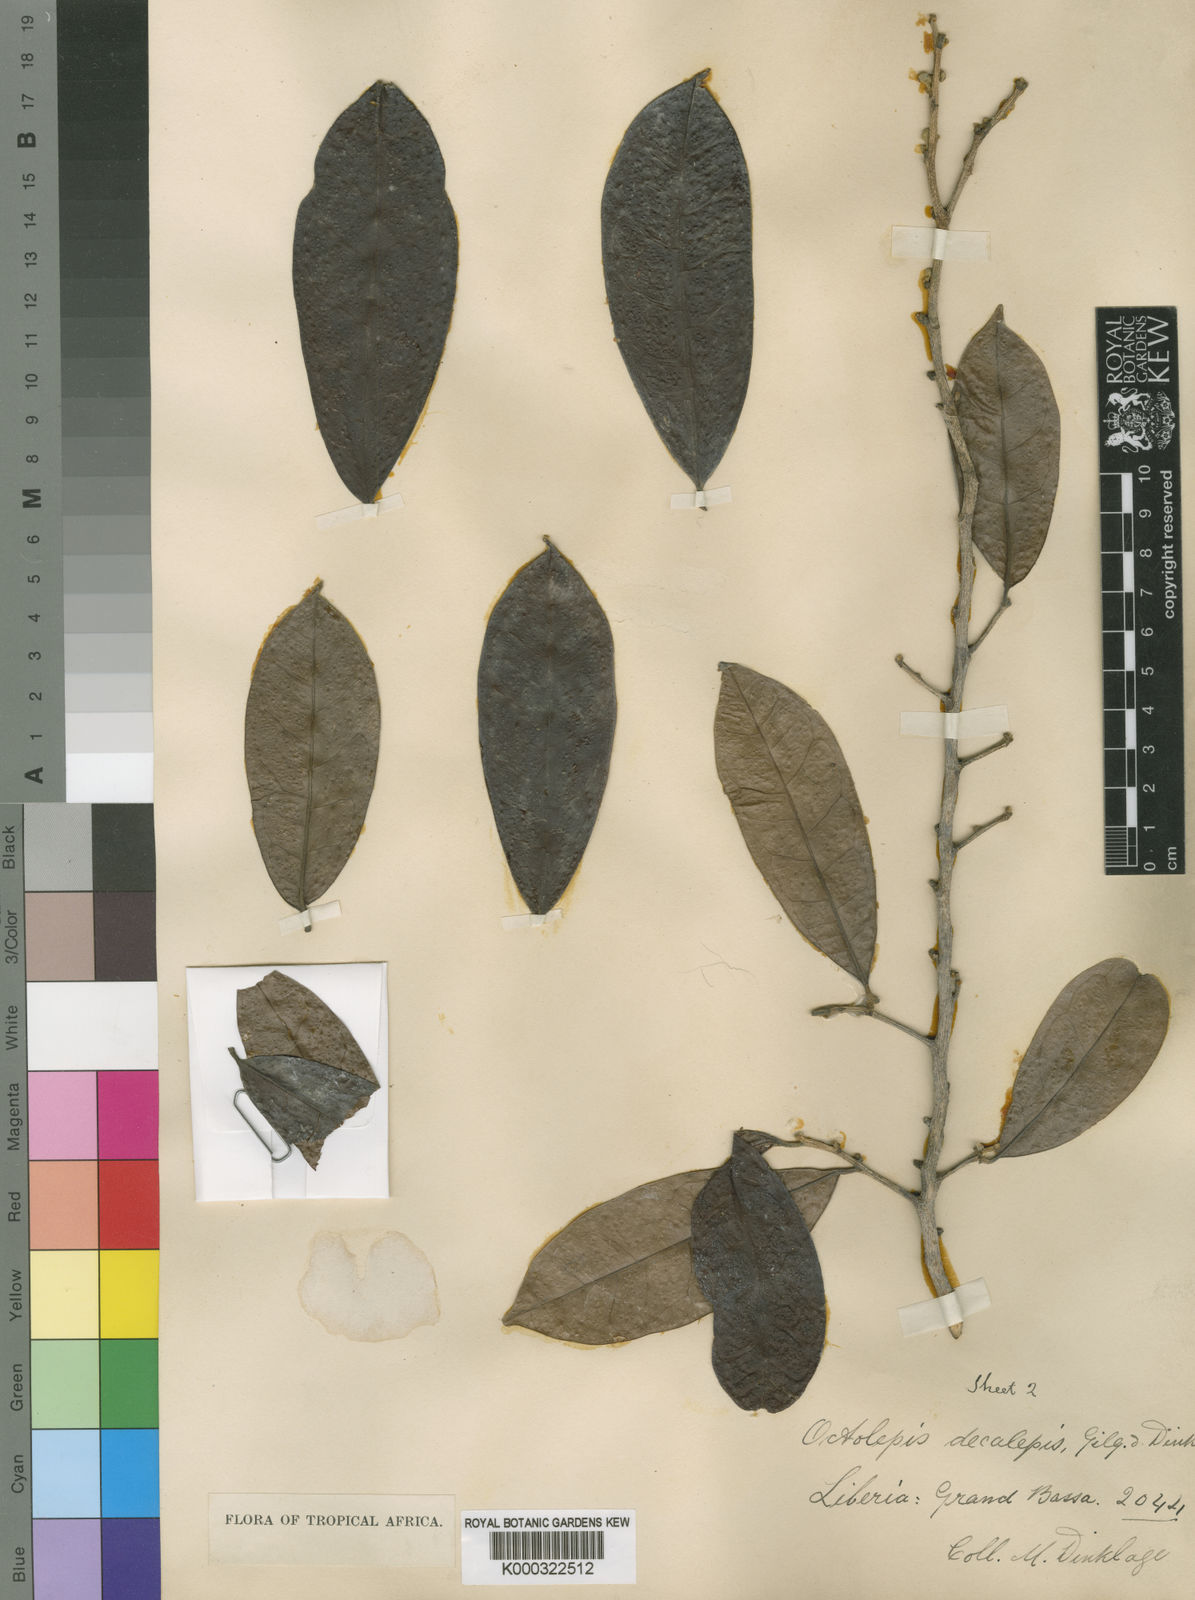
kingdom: Plantae
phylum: Tracheophyta
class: Magnoliopsida
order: Malvales
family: Thymelaeaceae
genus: Octolepis
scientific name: Octolepis decalepis
